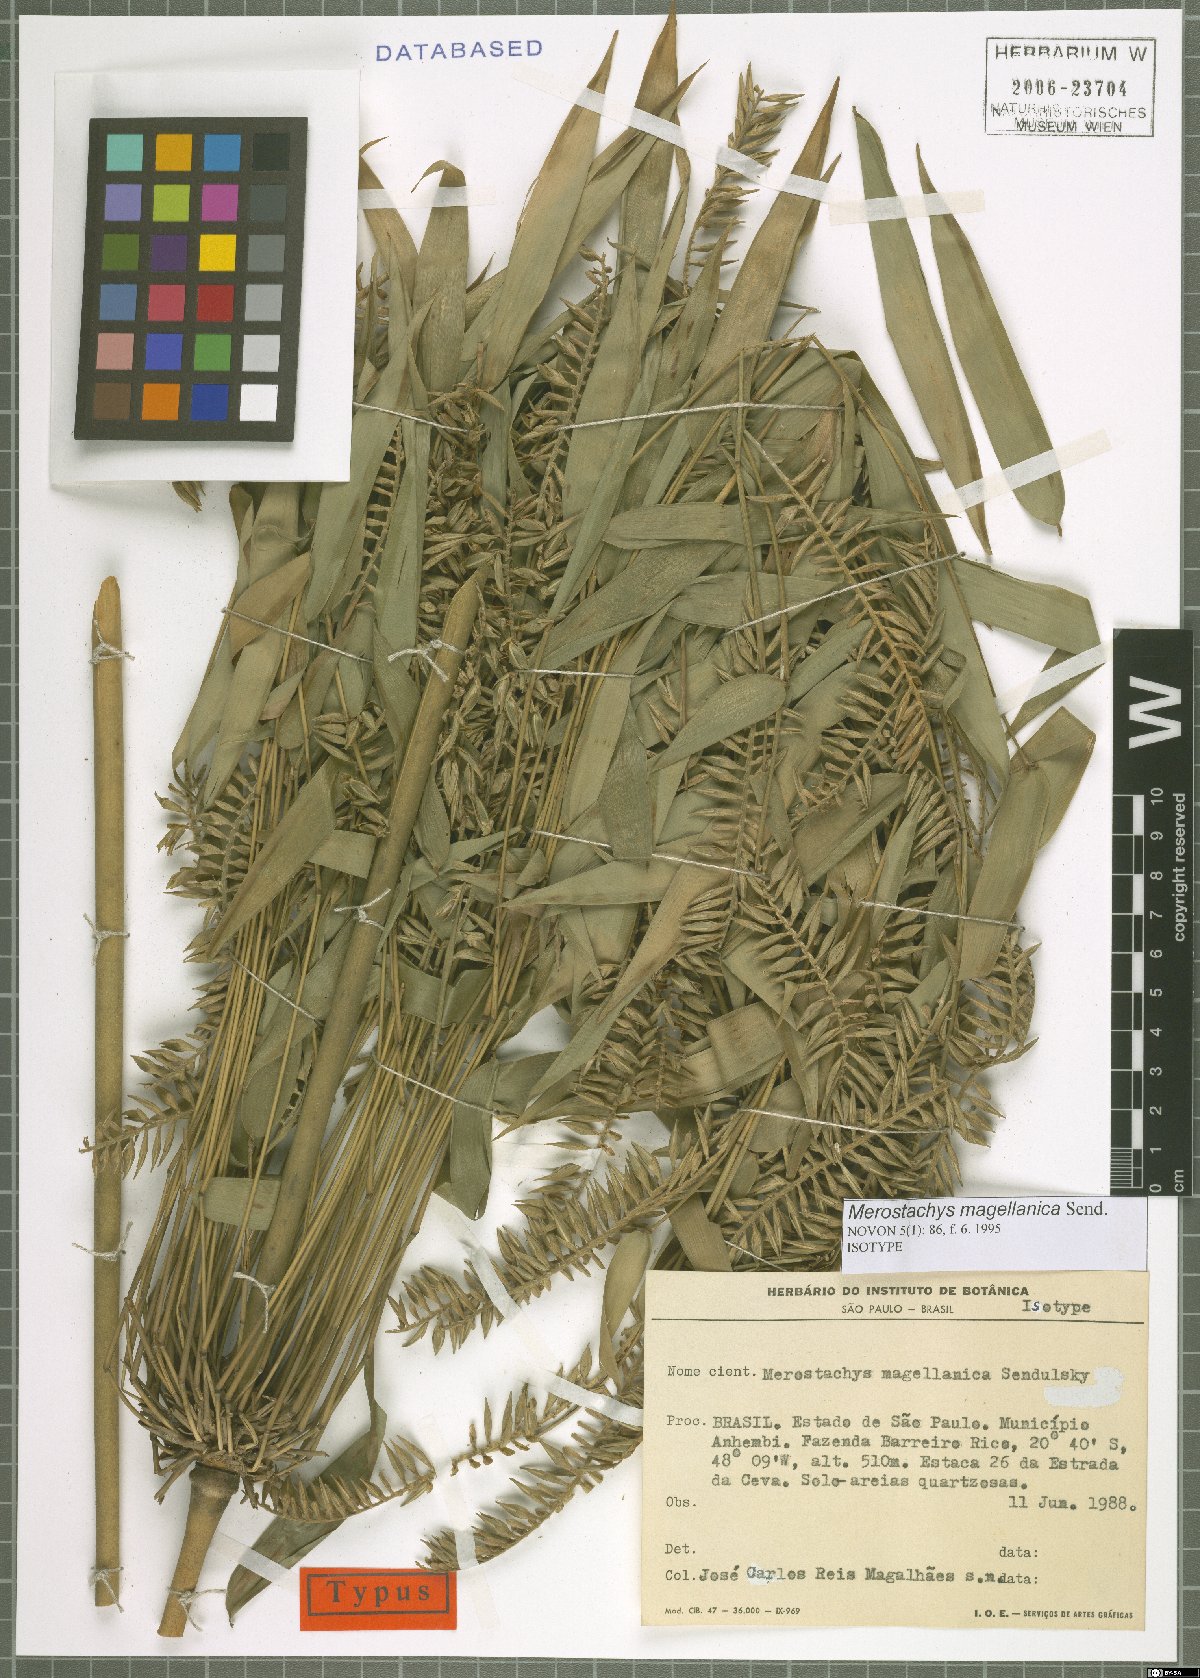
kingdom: Plantae
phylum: Tracheophyta
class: Liliopsida
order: Poales
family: Poaceae
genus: Merostachys
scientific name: Merostachys magellanica
